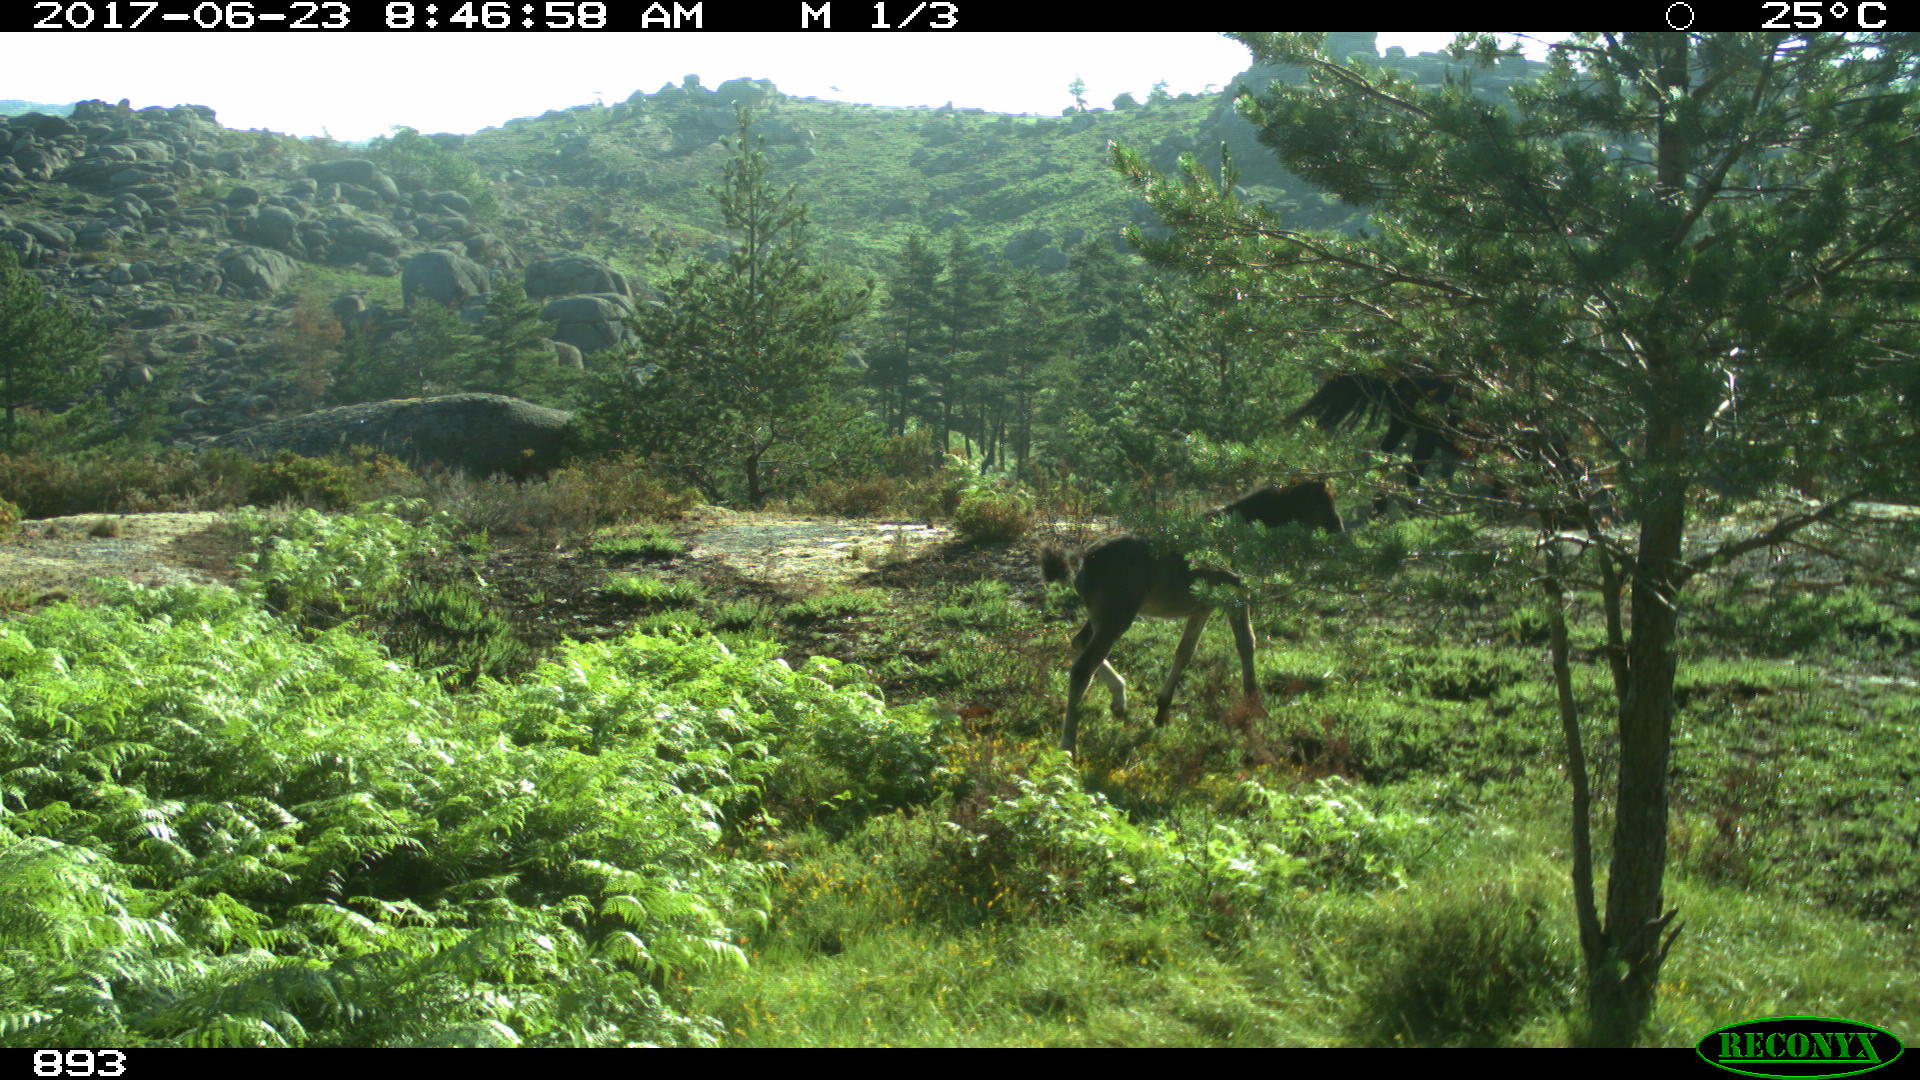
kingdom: Animalia
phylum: Chordata
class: Mammalia
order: Perissodactyla
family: Equidae
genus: Equus
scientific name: Equus caballus
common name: Horse
